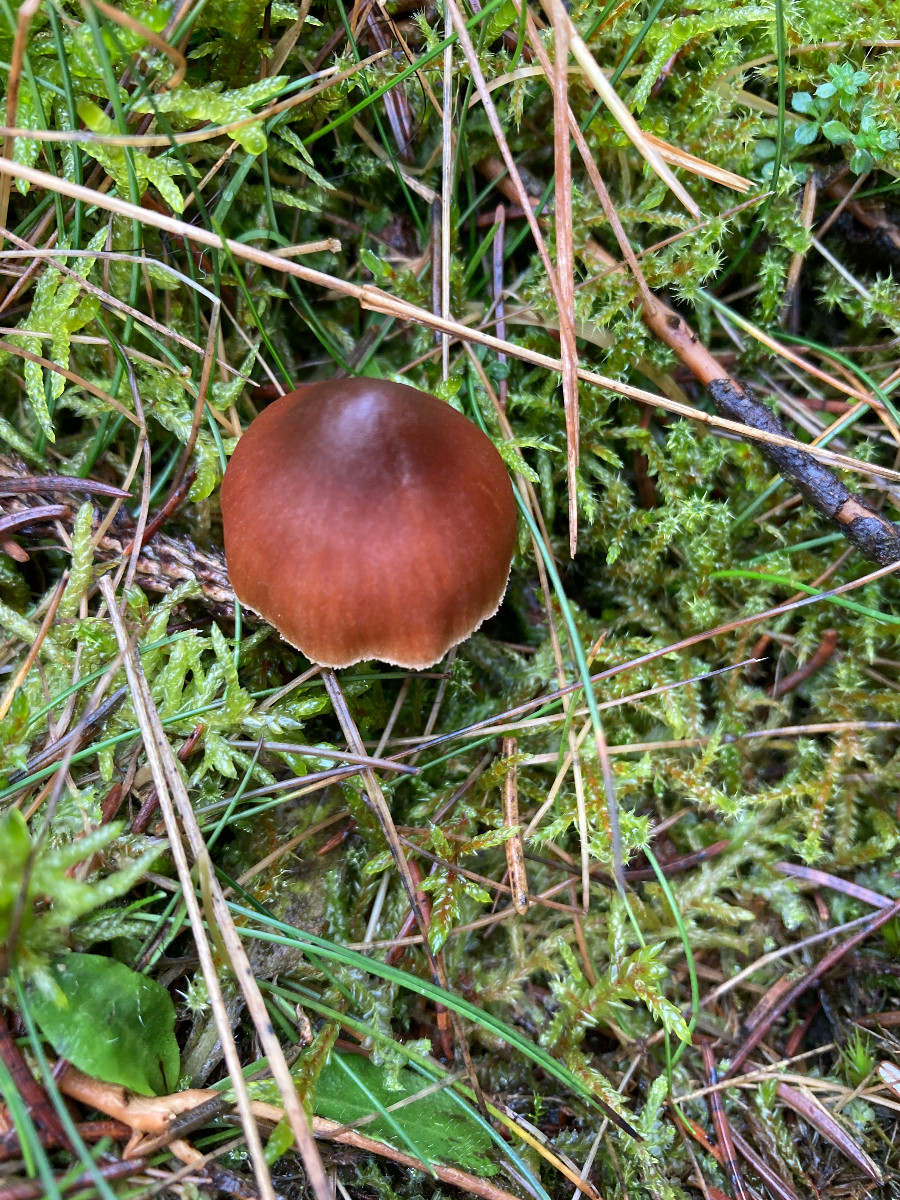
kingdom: Fungi
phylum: Basidiomycota
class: Agaricomycetes
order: Agaricales
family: Cortinariaceae
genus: Cortinarius
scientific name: Cortinarius
